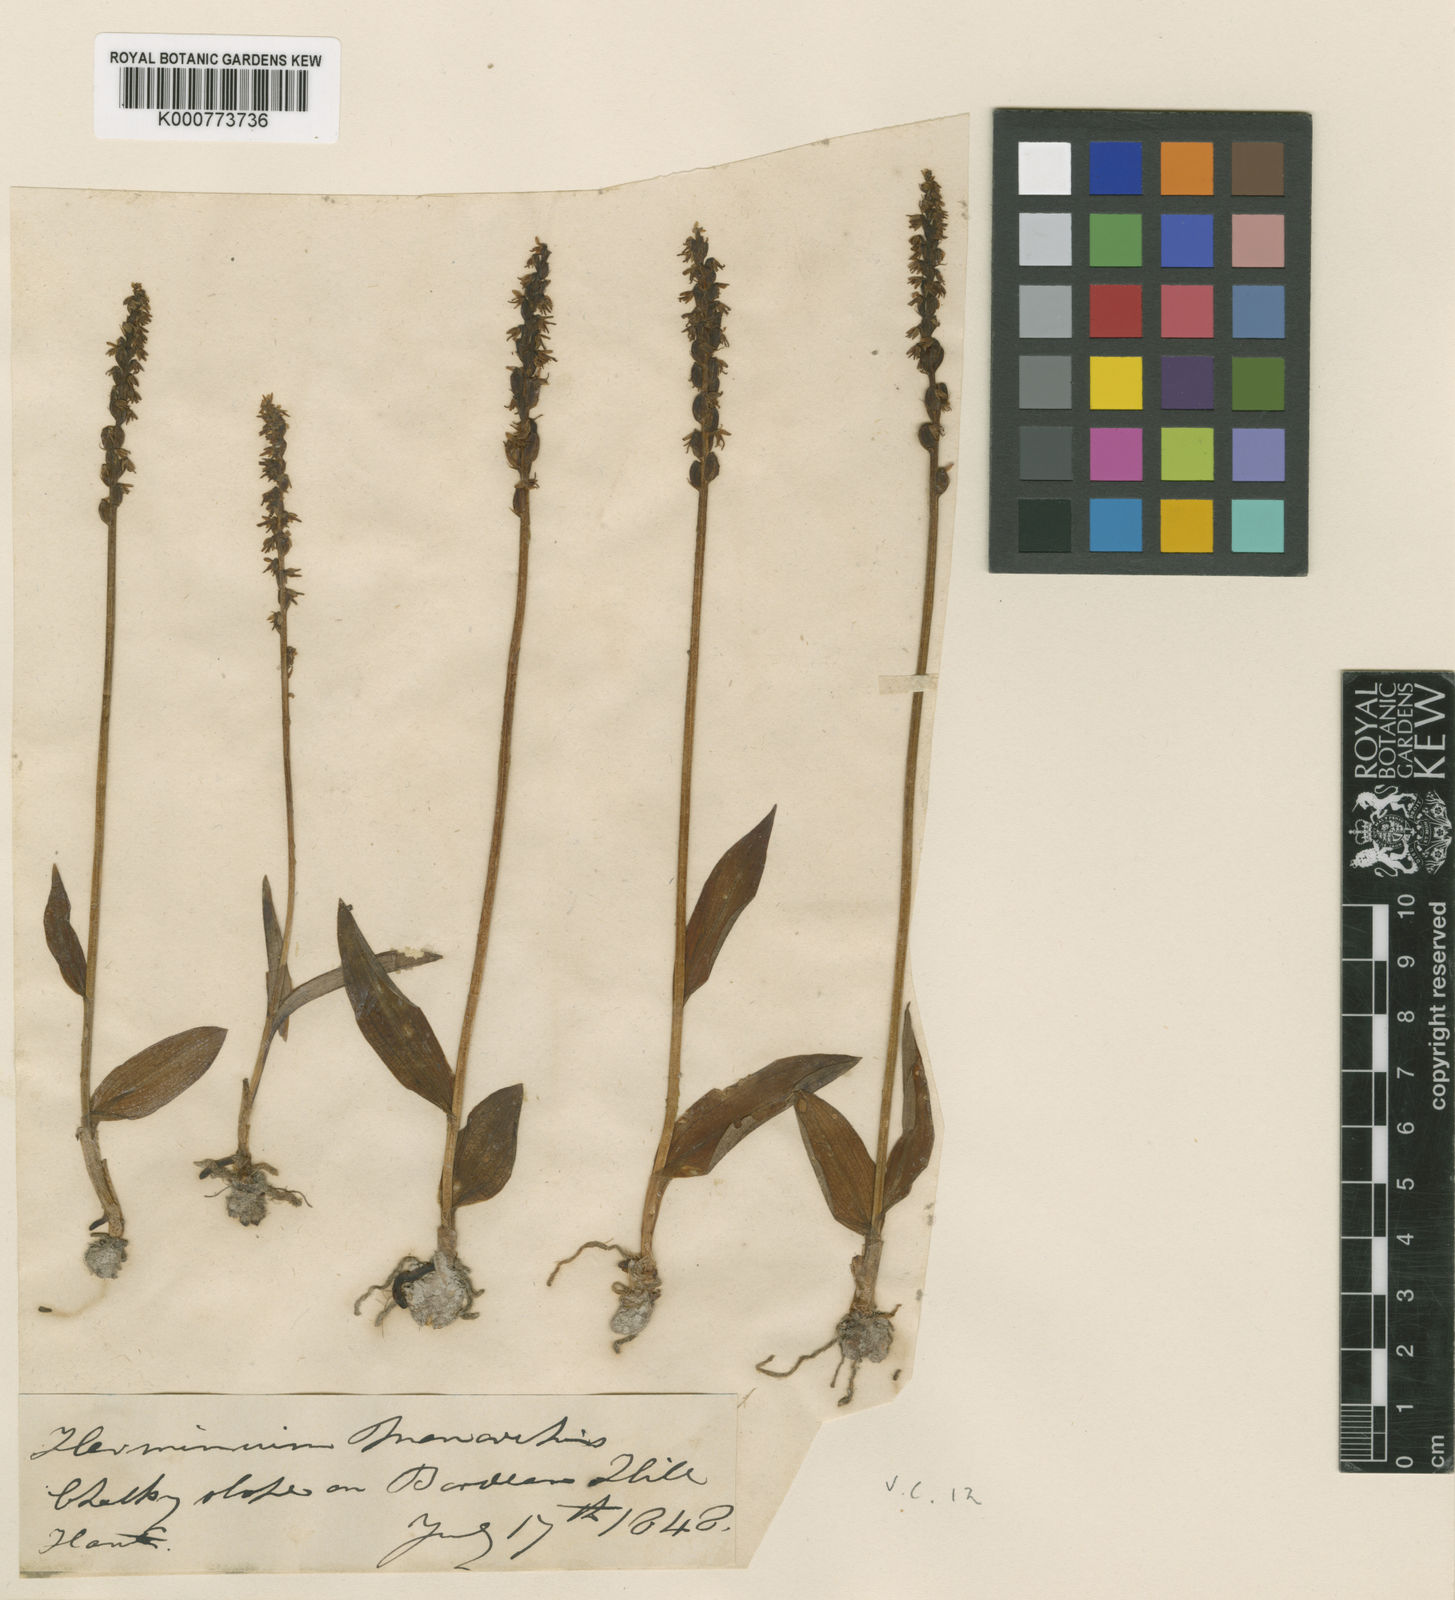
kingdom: Plantae
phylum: Tracheophyta
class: Liliopsida
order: Asparagales
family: Orchidaceae
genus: Herminium
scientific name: Herminium monorchis
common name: Musk orchid
